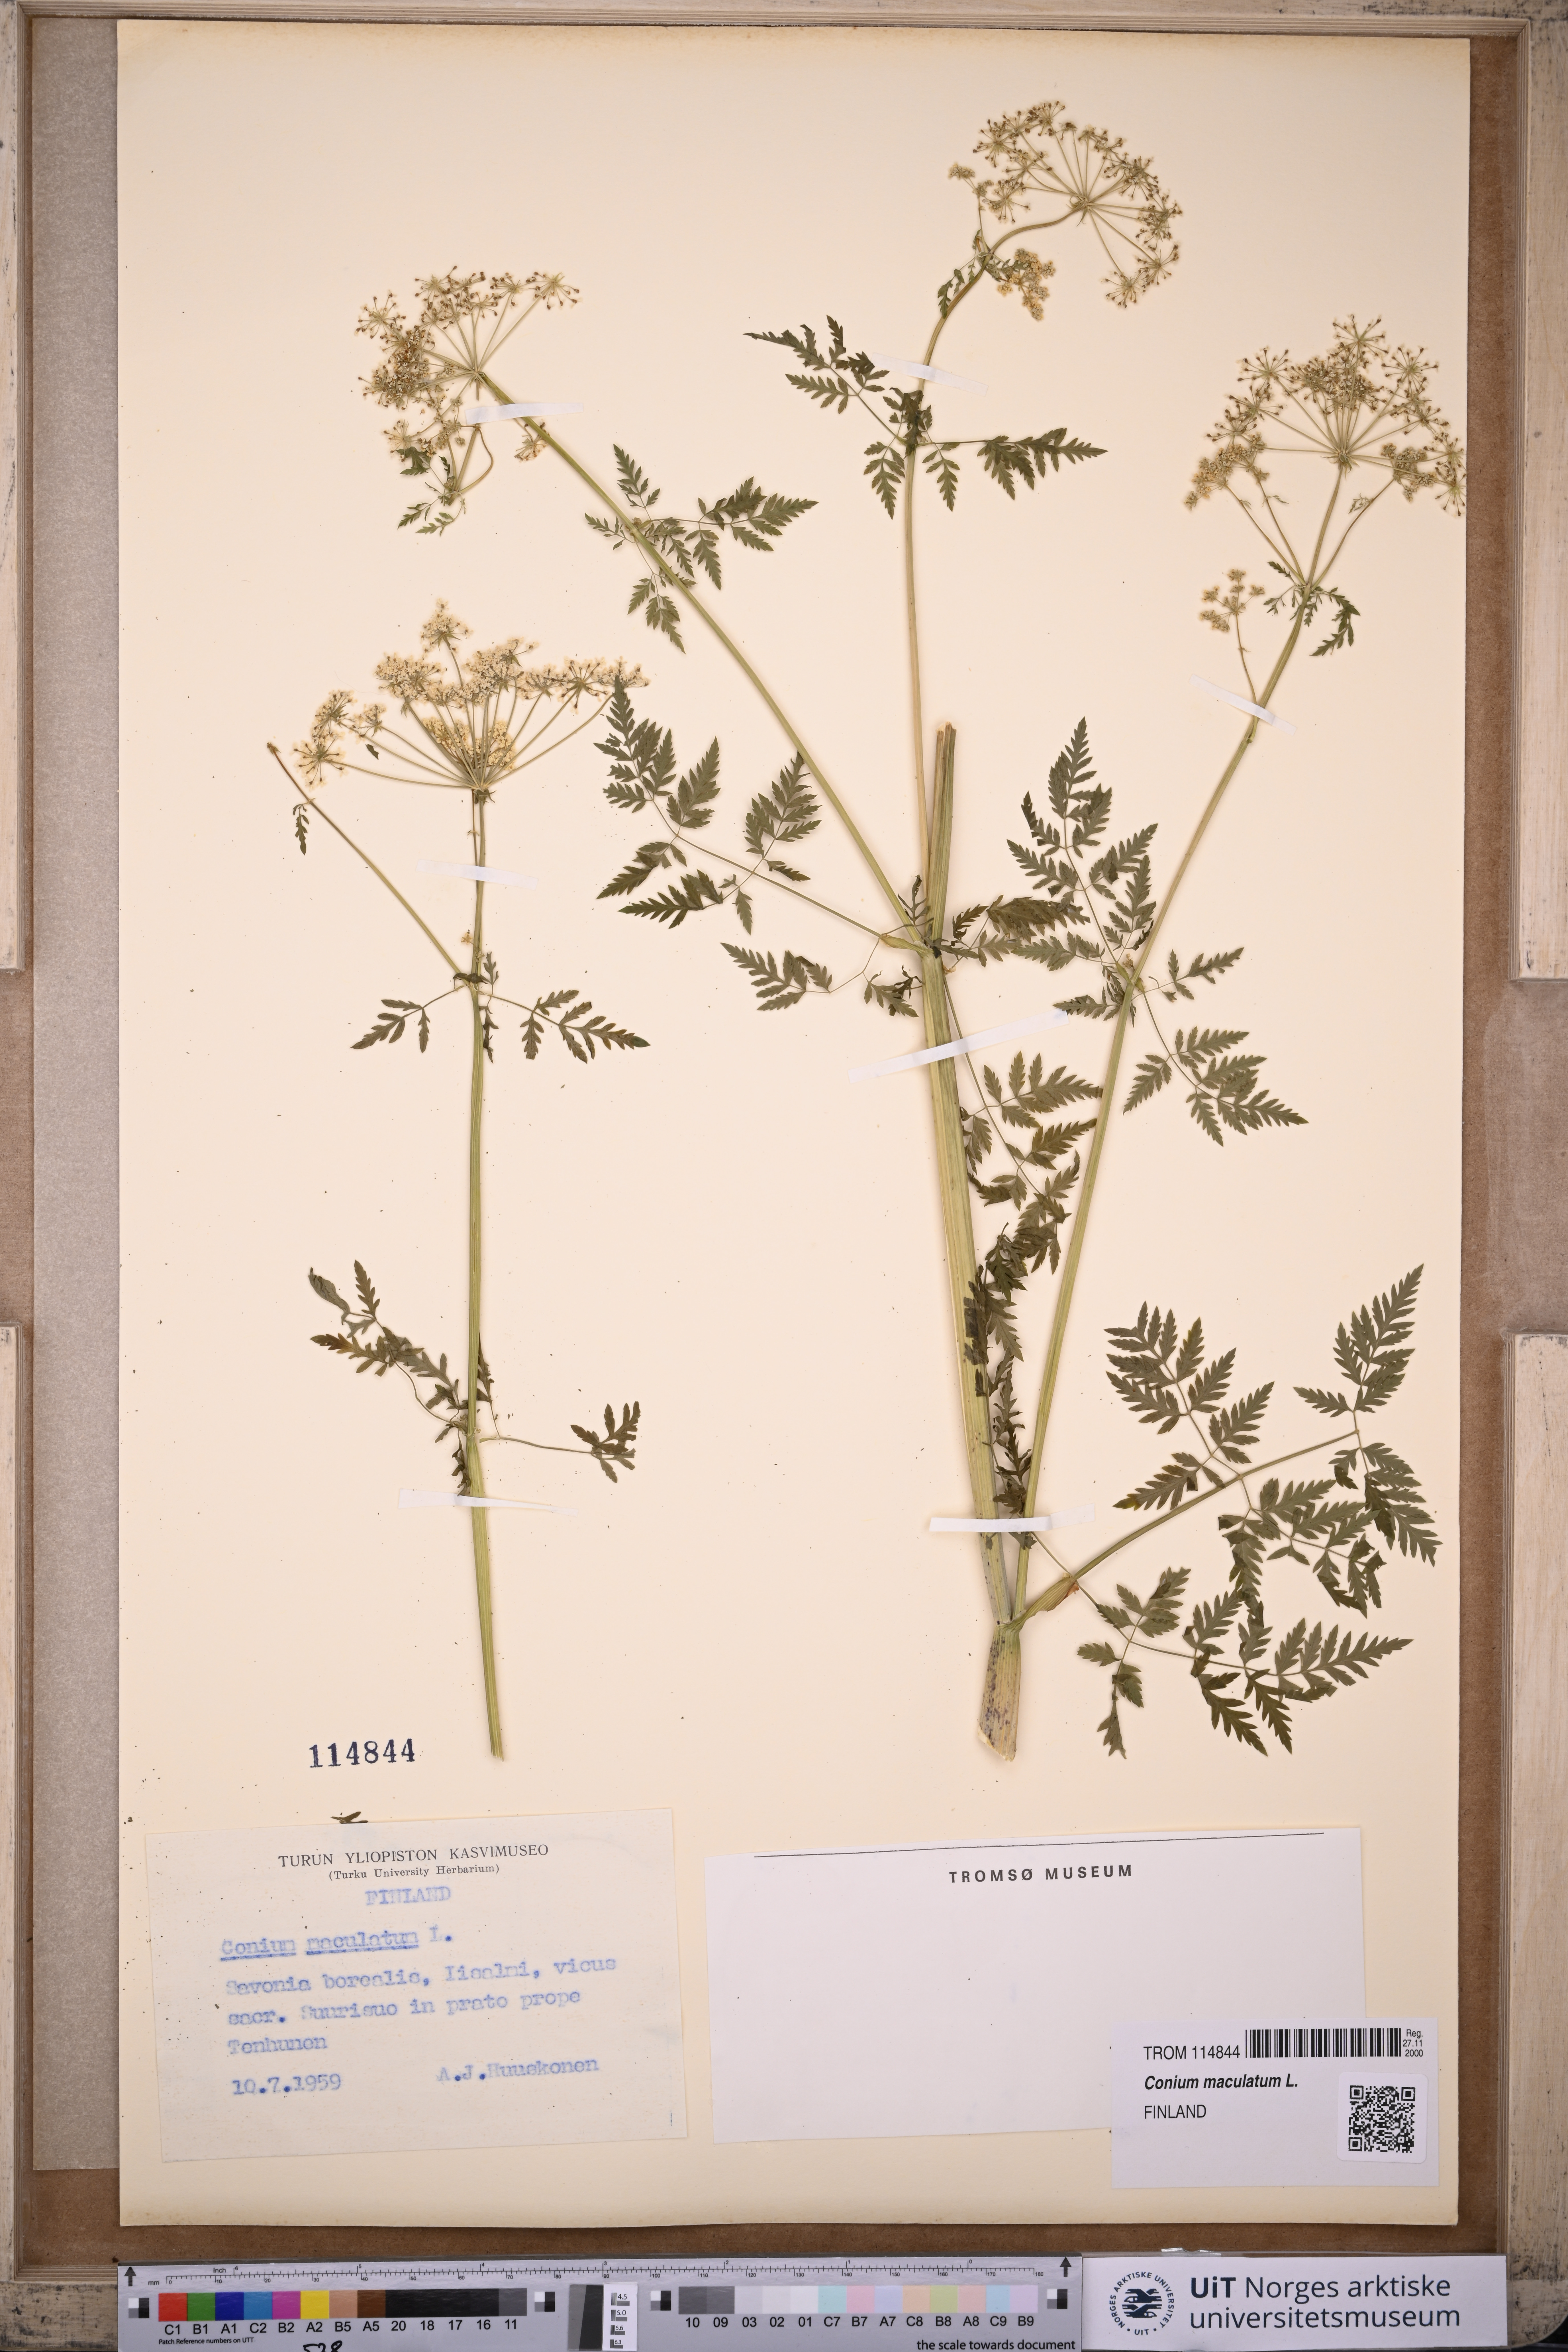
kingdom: Plantae
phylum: Tracheophyta
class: Magnoliopsida
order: Apiales
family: Apiaceae
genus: Conium
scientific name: Conium maculatum
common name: Hemlock
